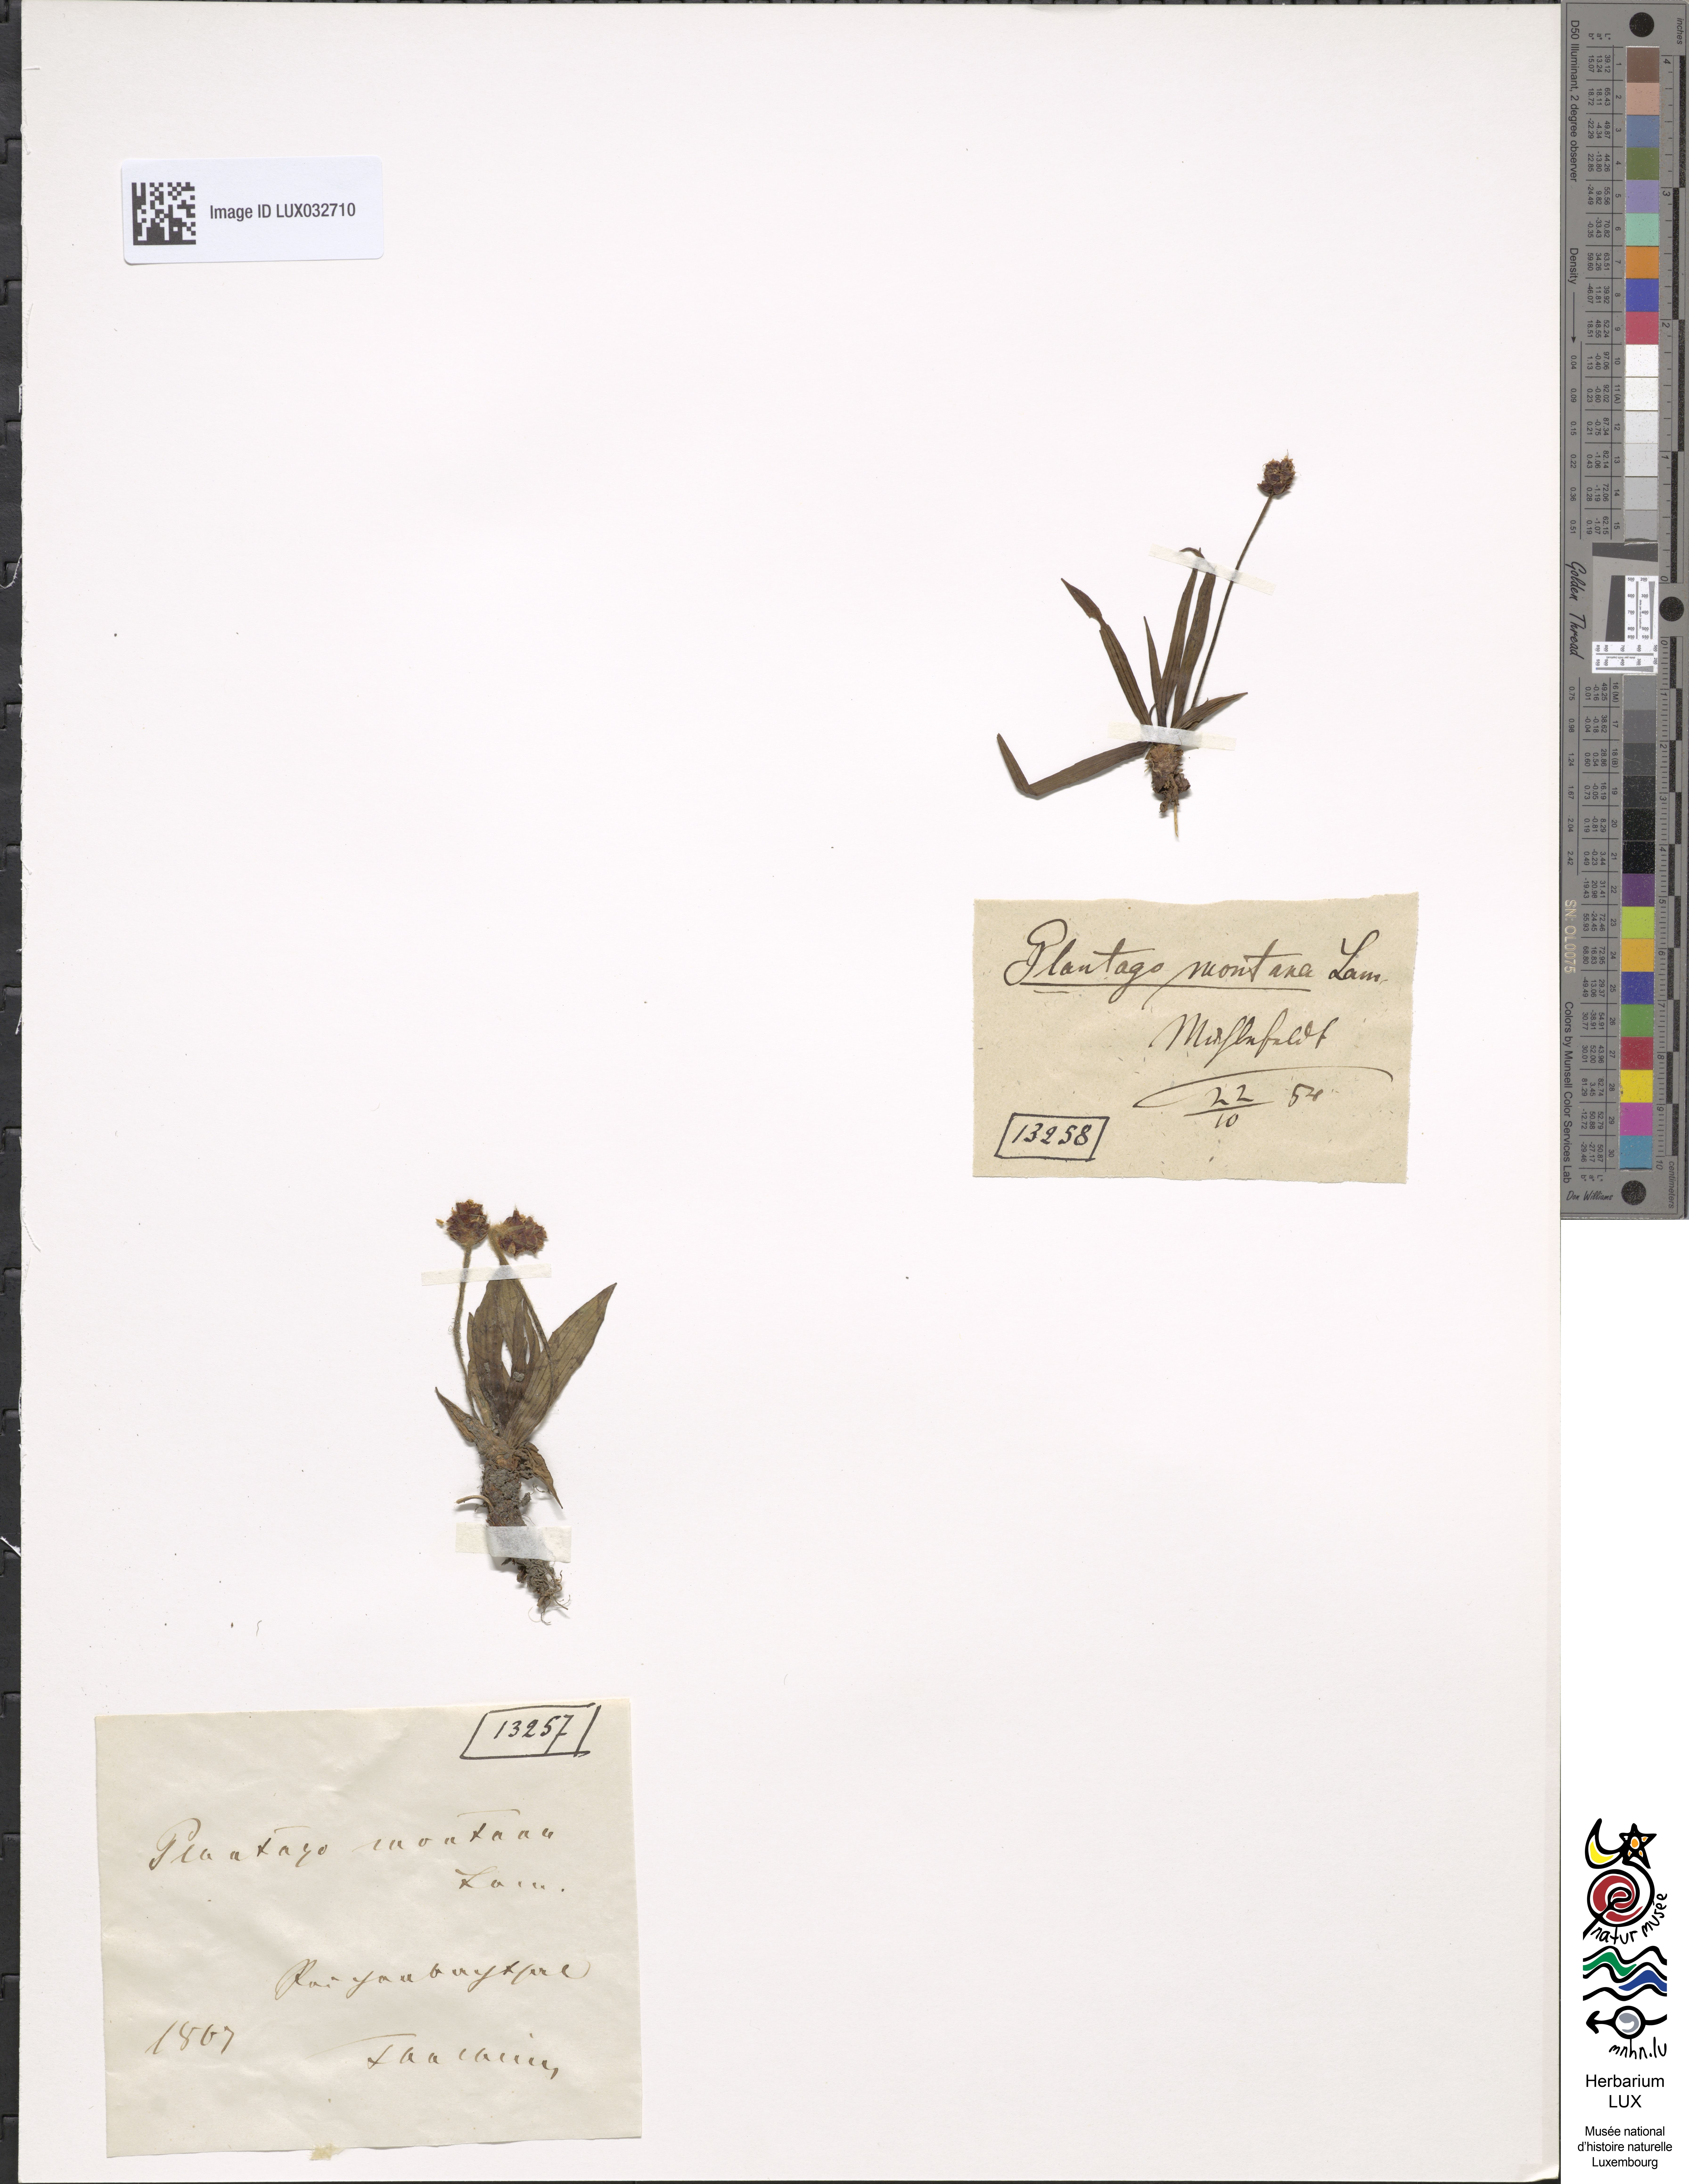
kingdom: Plantae
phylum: Tracheophyta
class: Magnoliopsida
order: Lamiales
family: Plantaginaceae
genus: Plantago
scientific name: Plantago atrata
